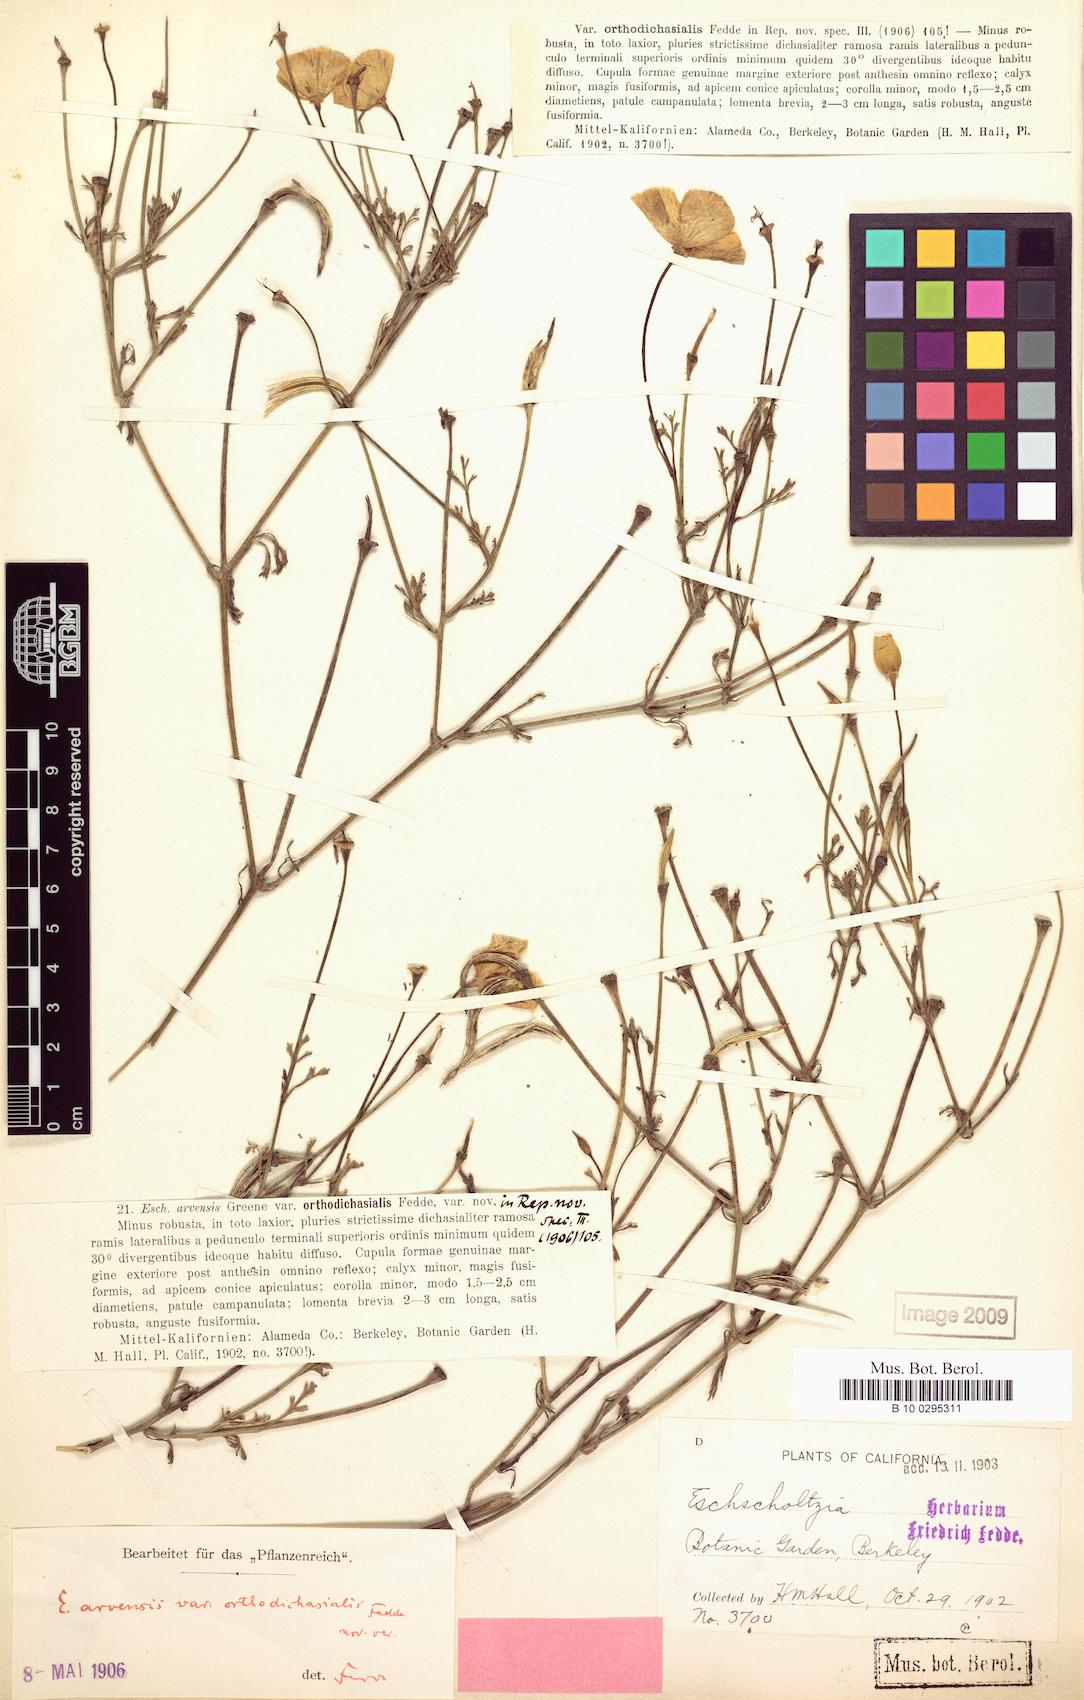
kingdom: Plantae
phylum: Tracheophyta
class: Magnoliopsida
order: Ranunculales
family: Papaveraceae
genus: Eschscholzia
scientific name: Eschscholzia californica
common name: California poppy
